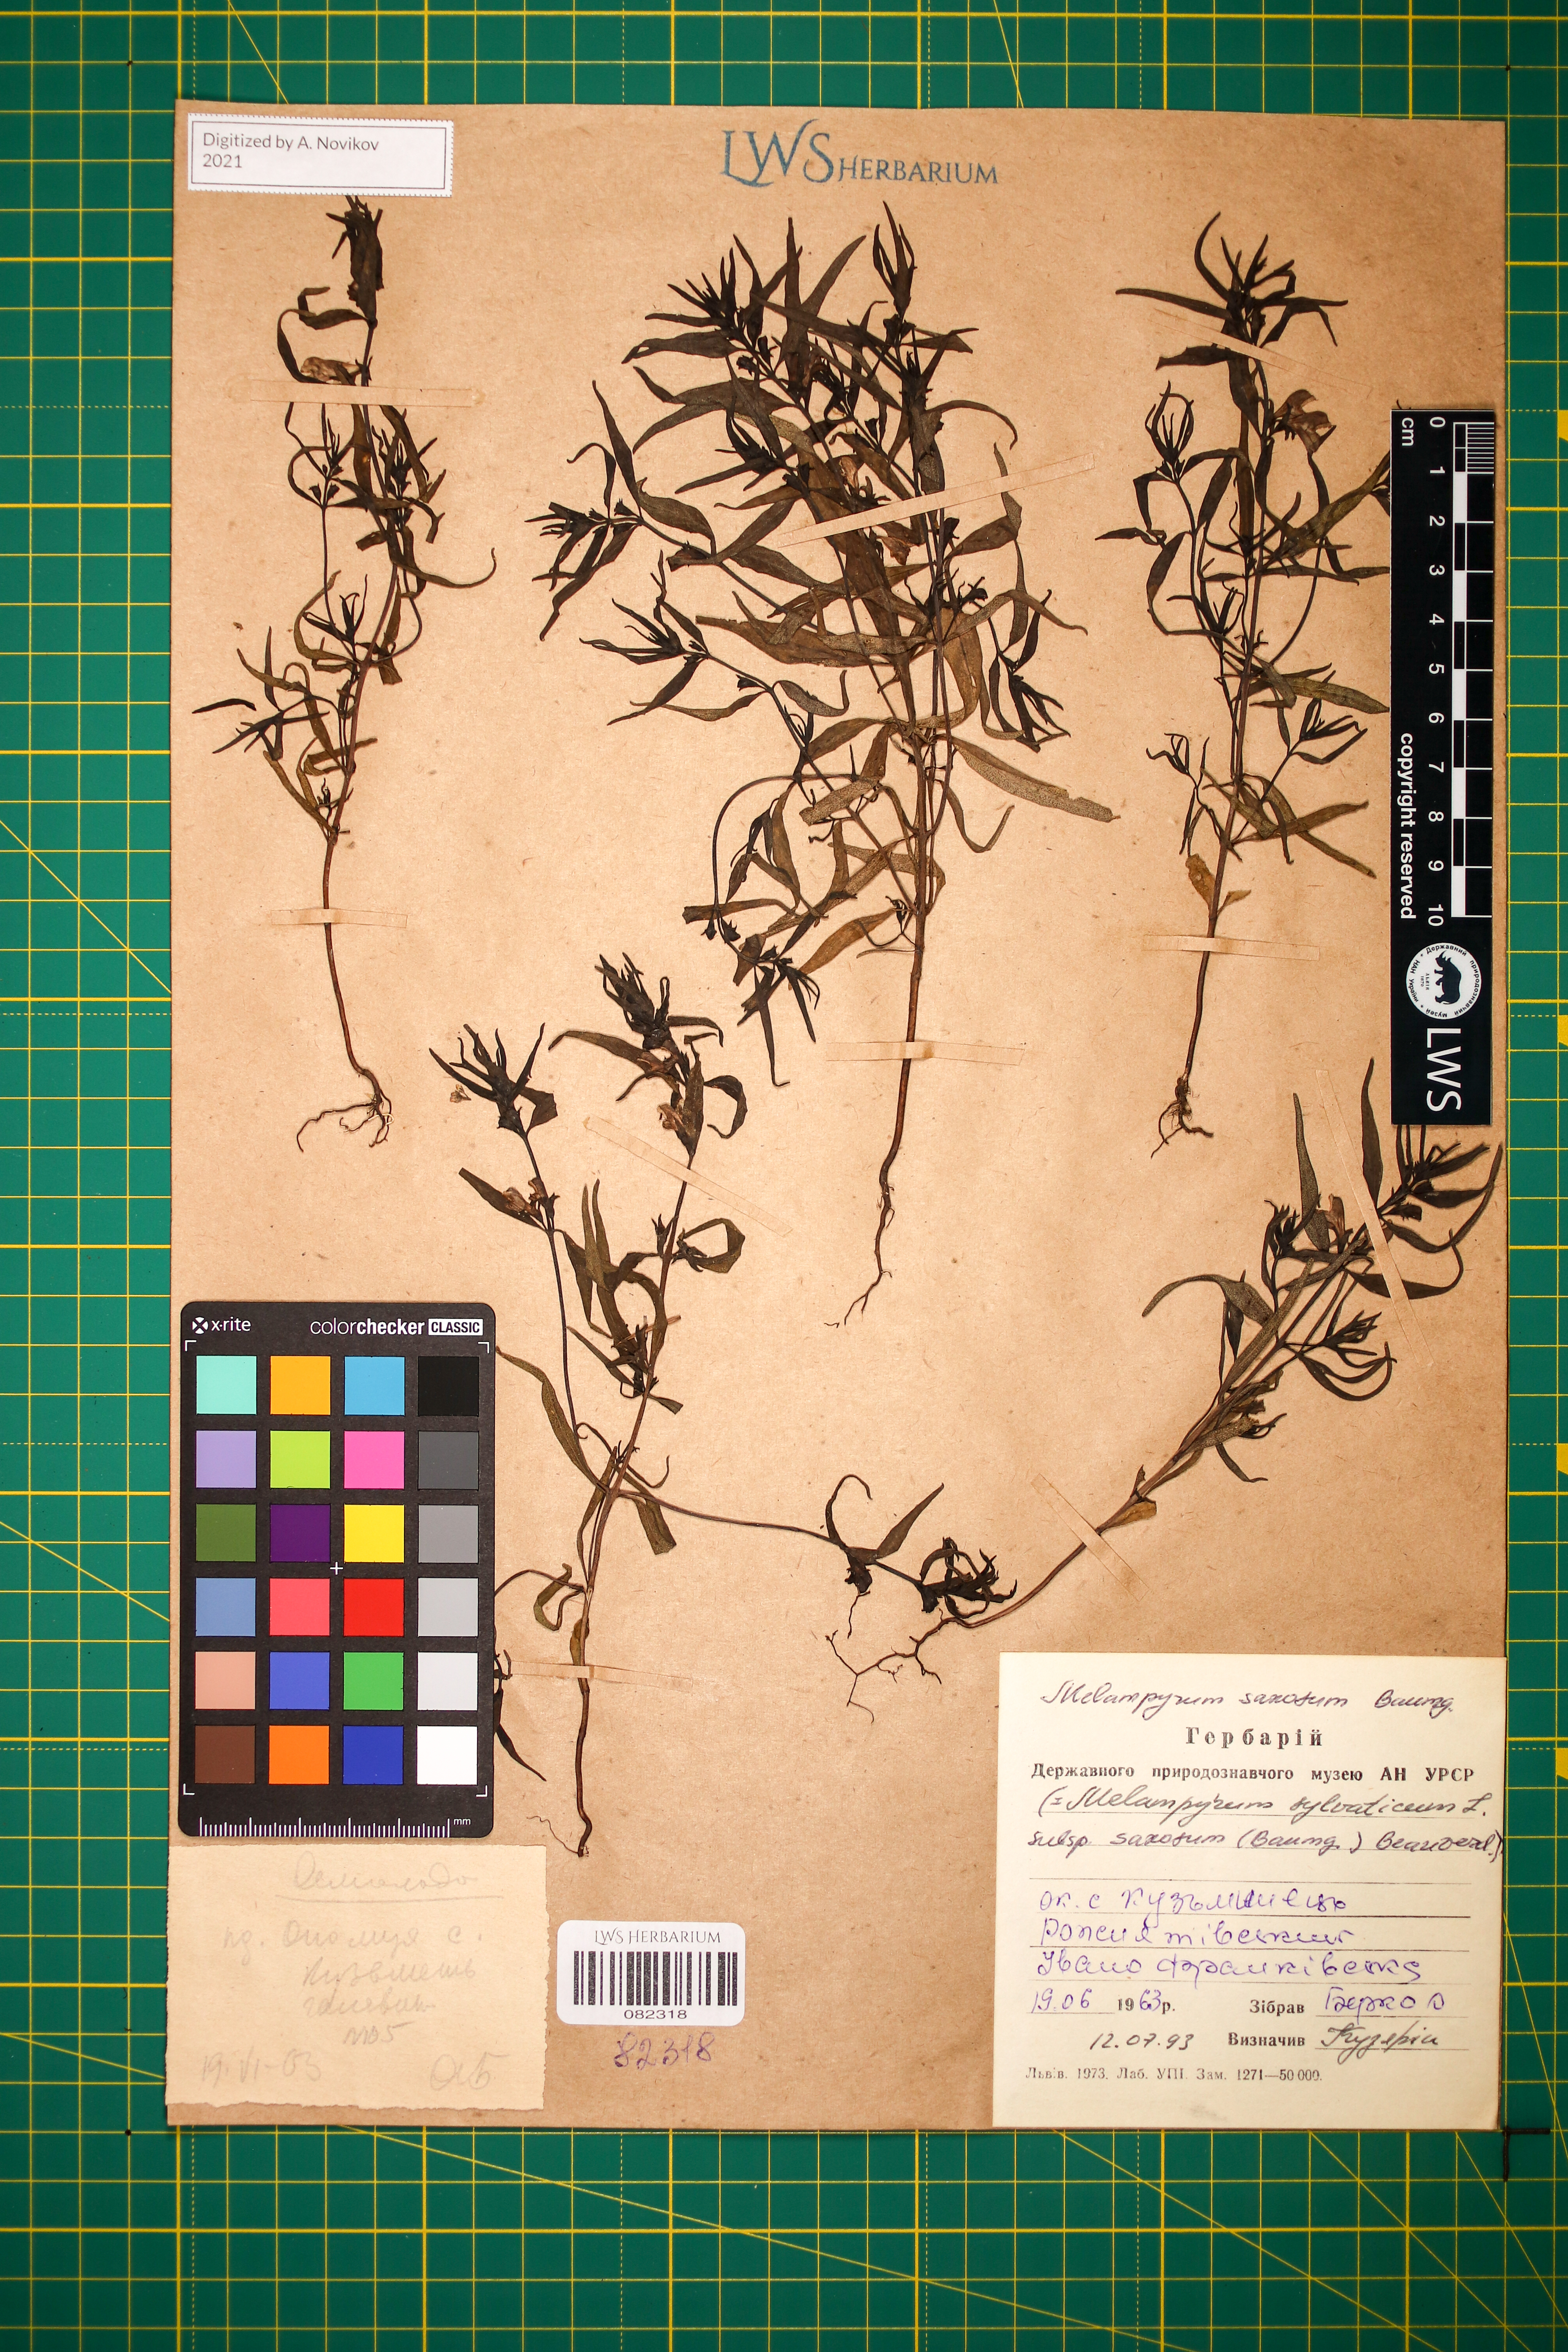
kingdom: Plantae
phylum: Tracheophyta
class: Magnoliopsida
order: Lamiales
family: Orobanchaceae
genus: Melampyrum
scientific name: Melampyrum saxosum
